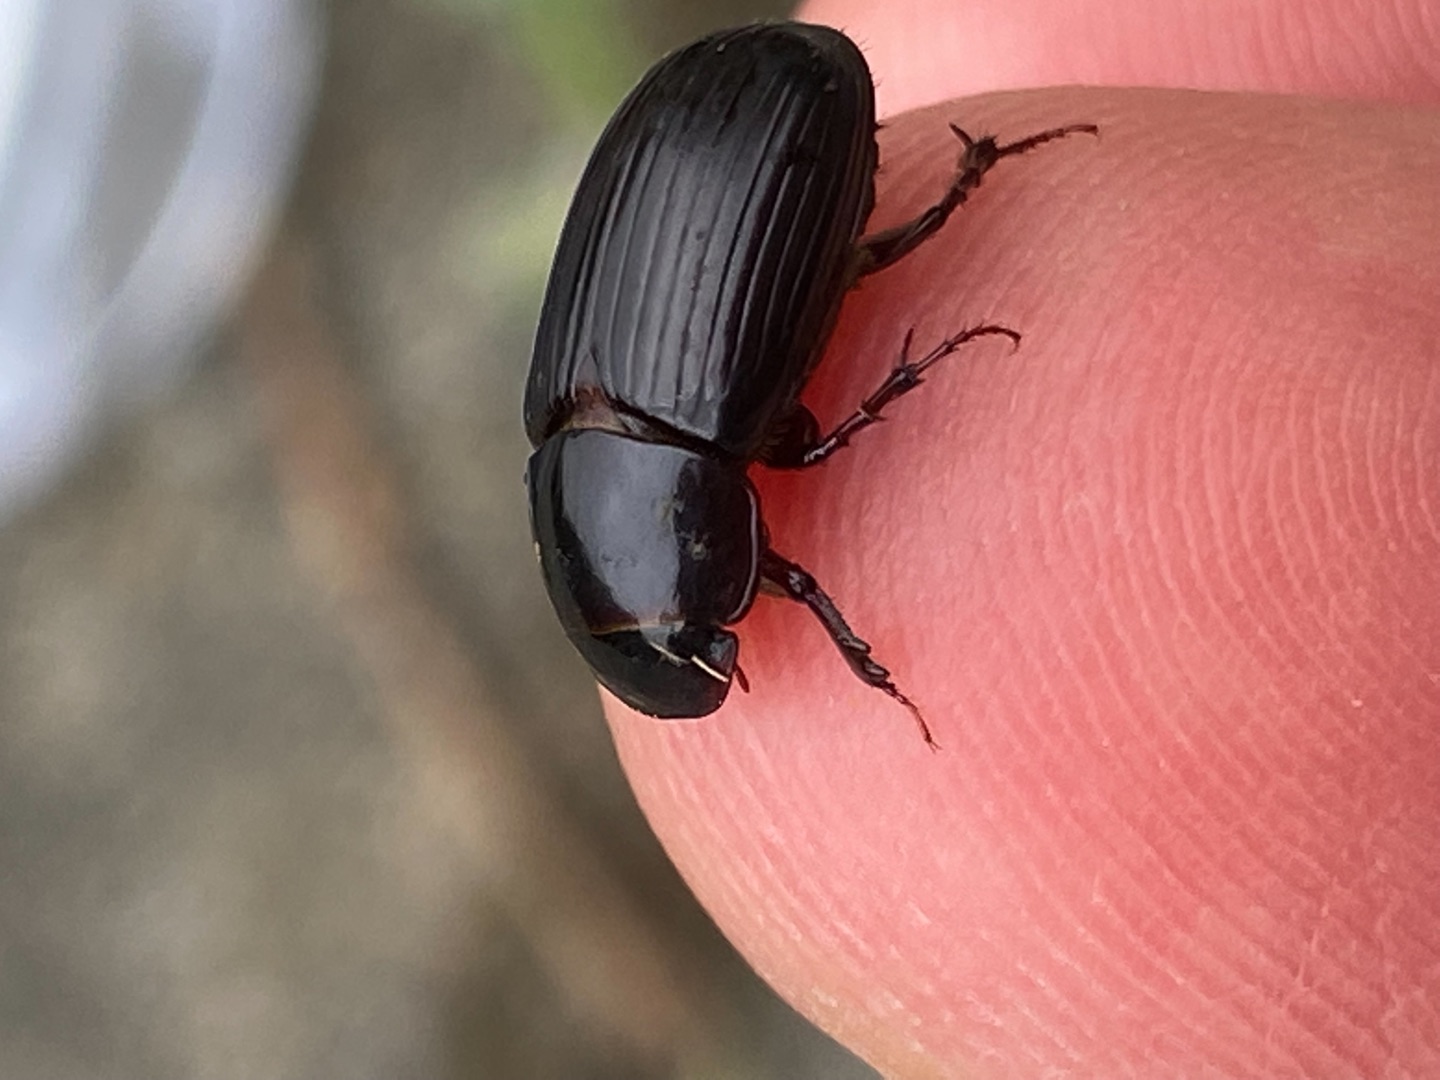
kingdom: Animalia
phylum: Arthropoda
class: Insecta
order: Coleoptera
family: Scarabaeidae
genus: Acrossus
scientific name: Acrossus rufipes
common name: Rødbenet møgbille
